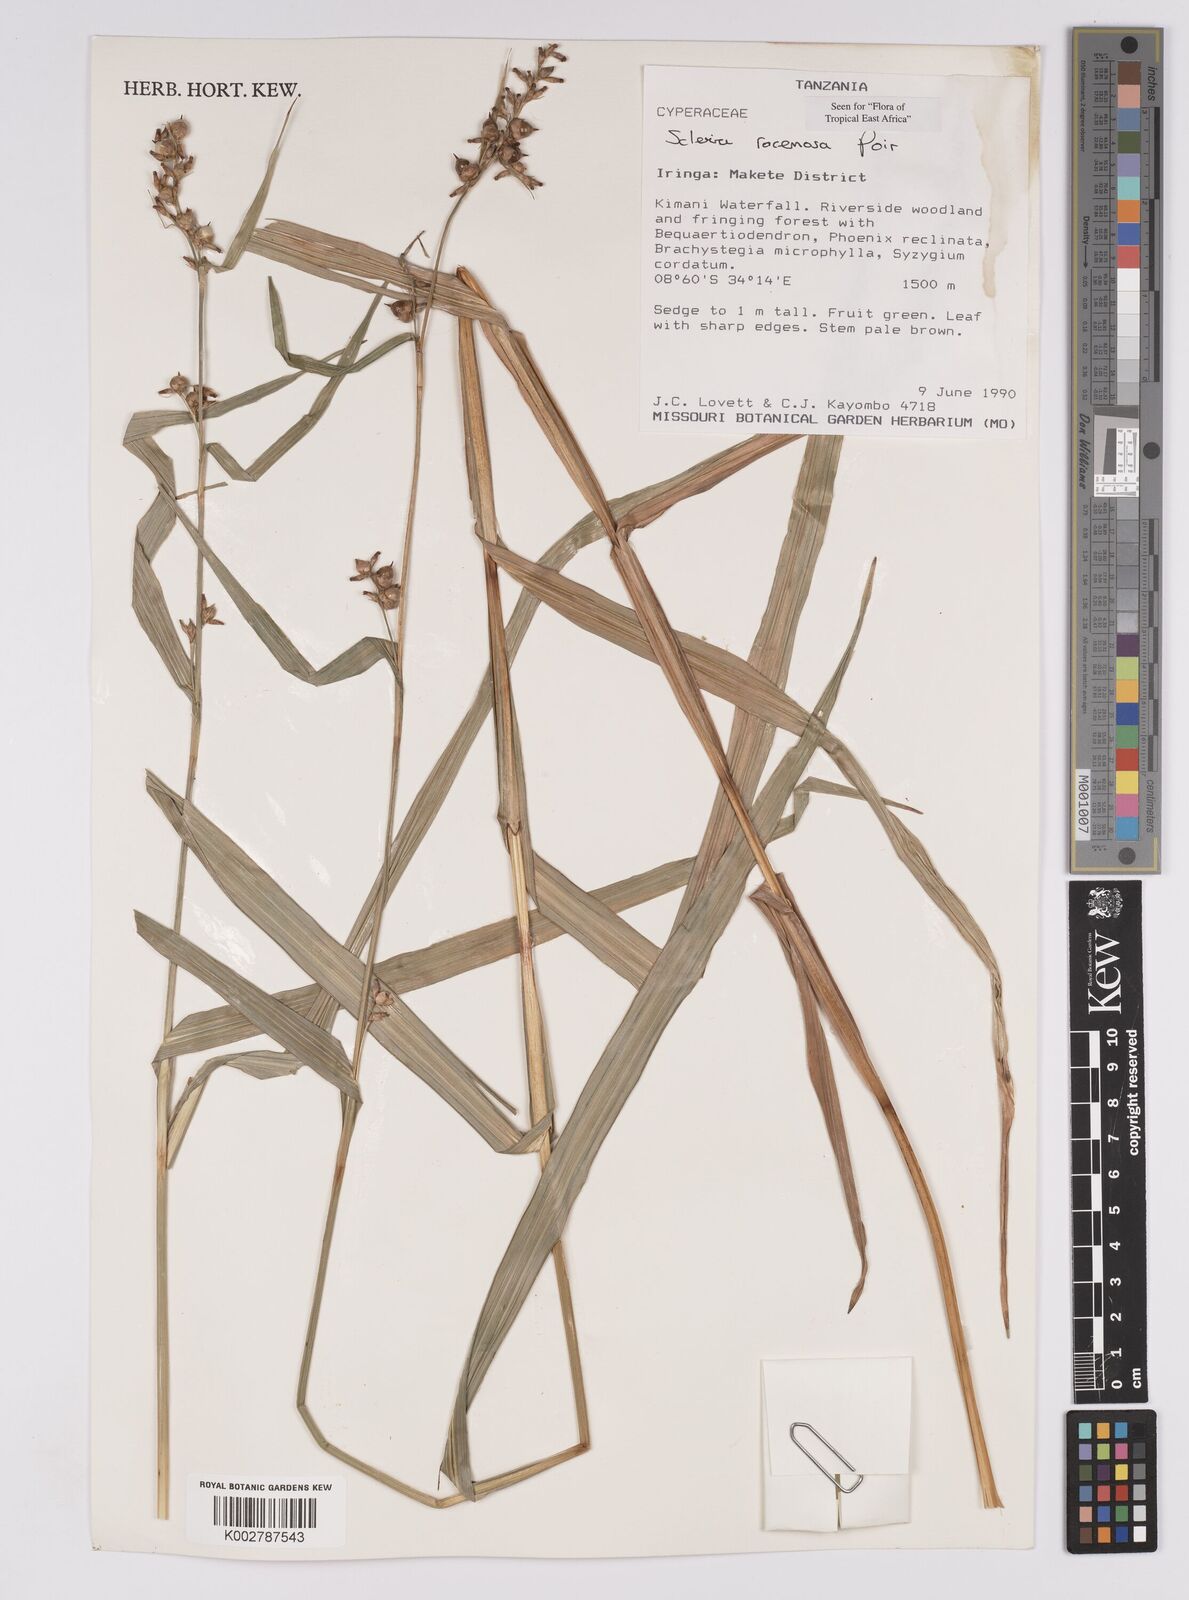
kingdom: Plantae
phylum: Tracheophyta
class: Liliopsida
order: Poales
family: Cyperaceae
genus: Scleria
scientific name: Scleria racemosa
